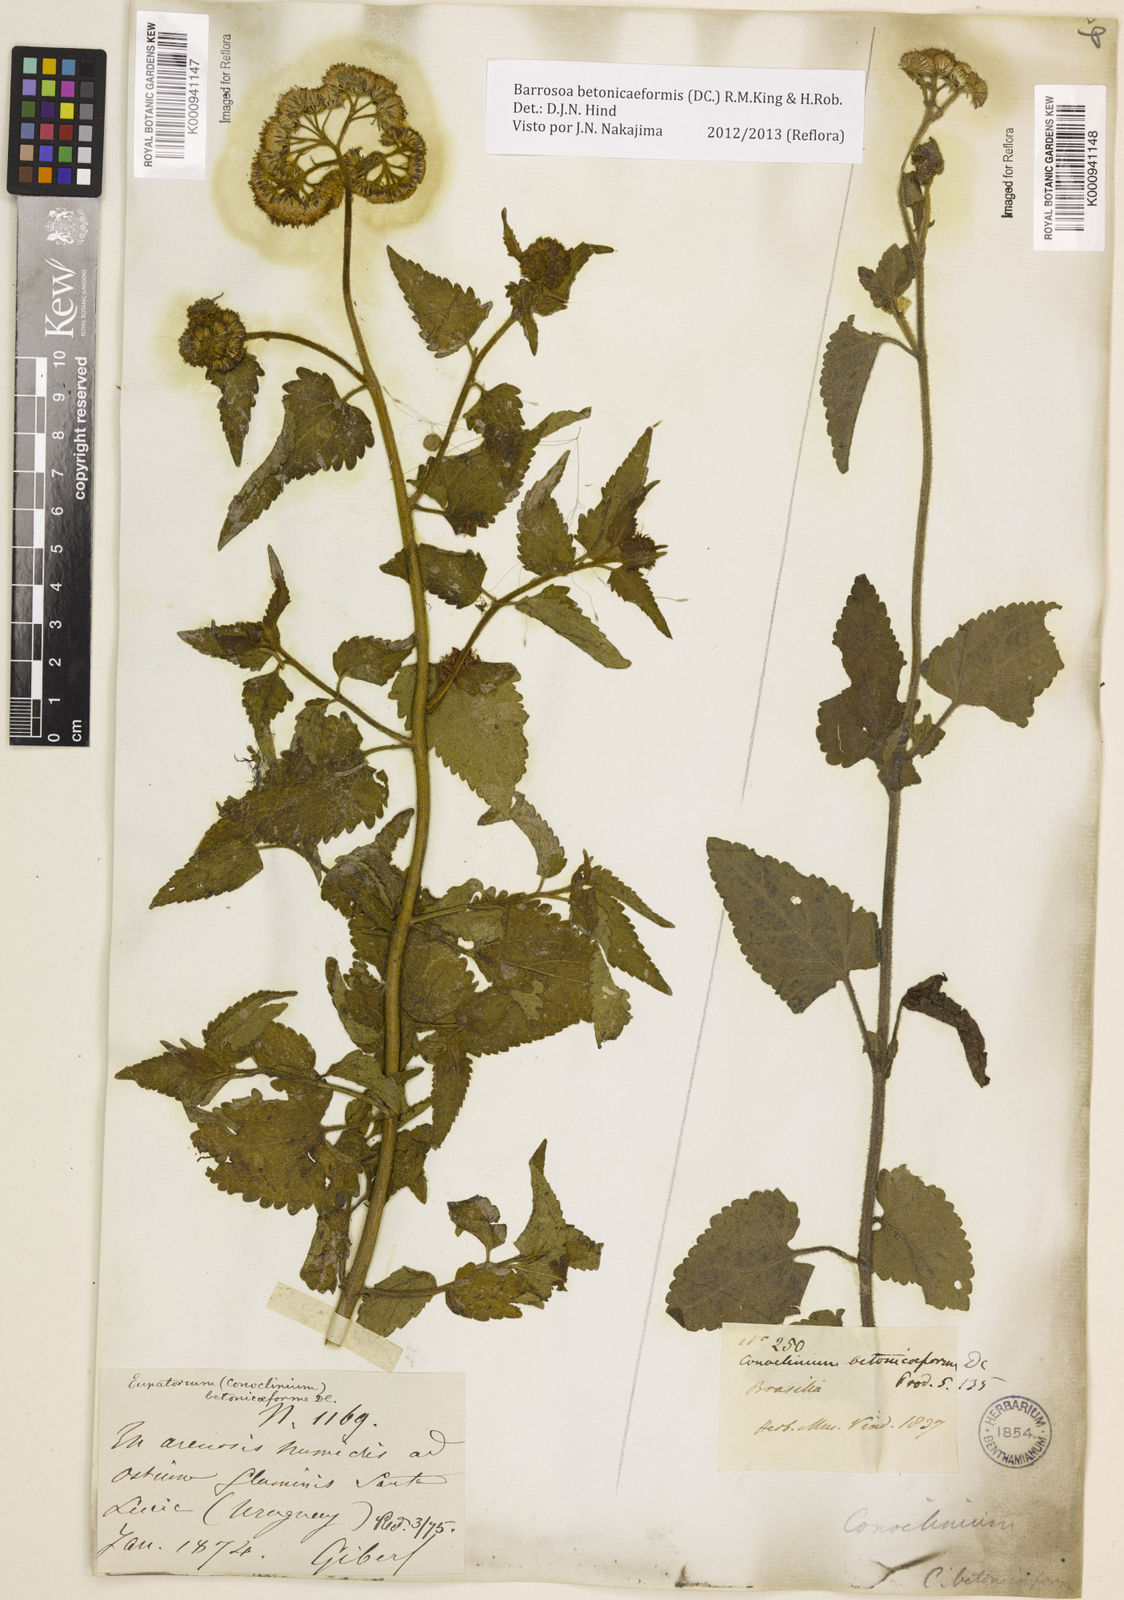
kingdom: Plantae
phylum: Tracheophyta
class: Magnoliopsida
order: Asterales
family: Asteraceae
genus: Barrosoa
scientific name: Barrosoa betoniciformis
